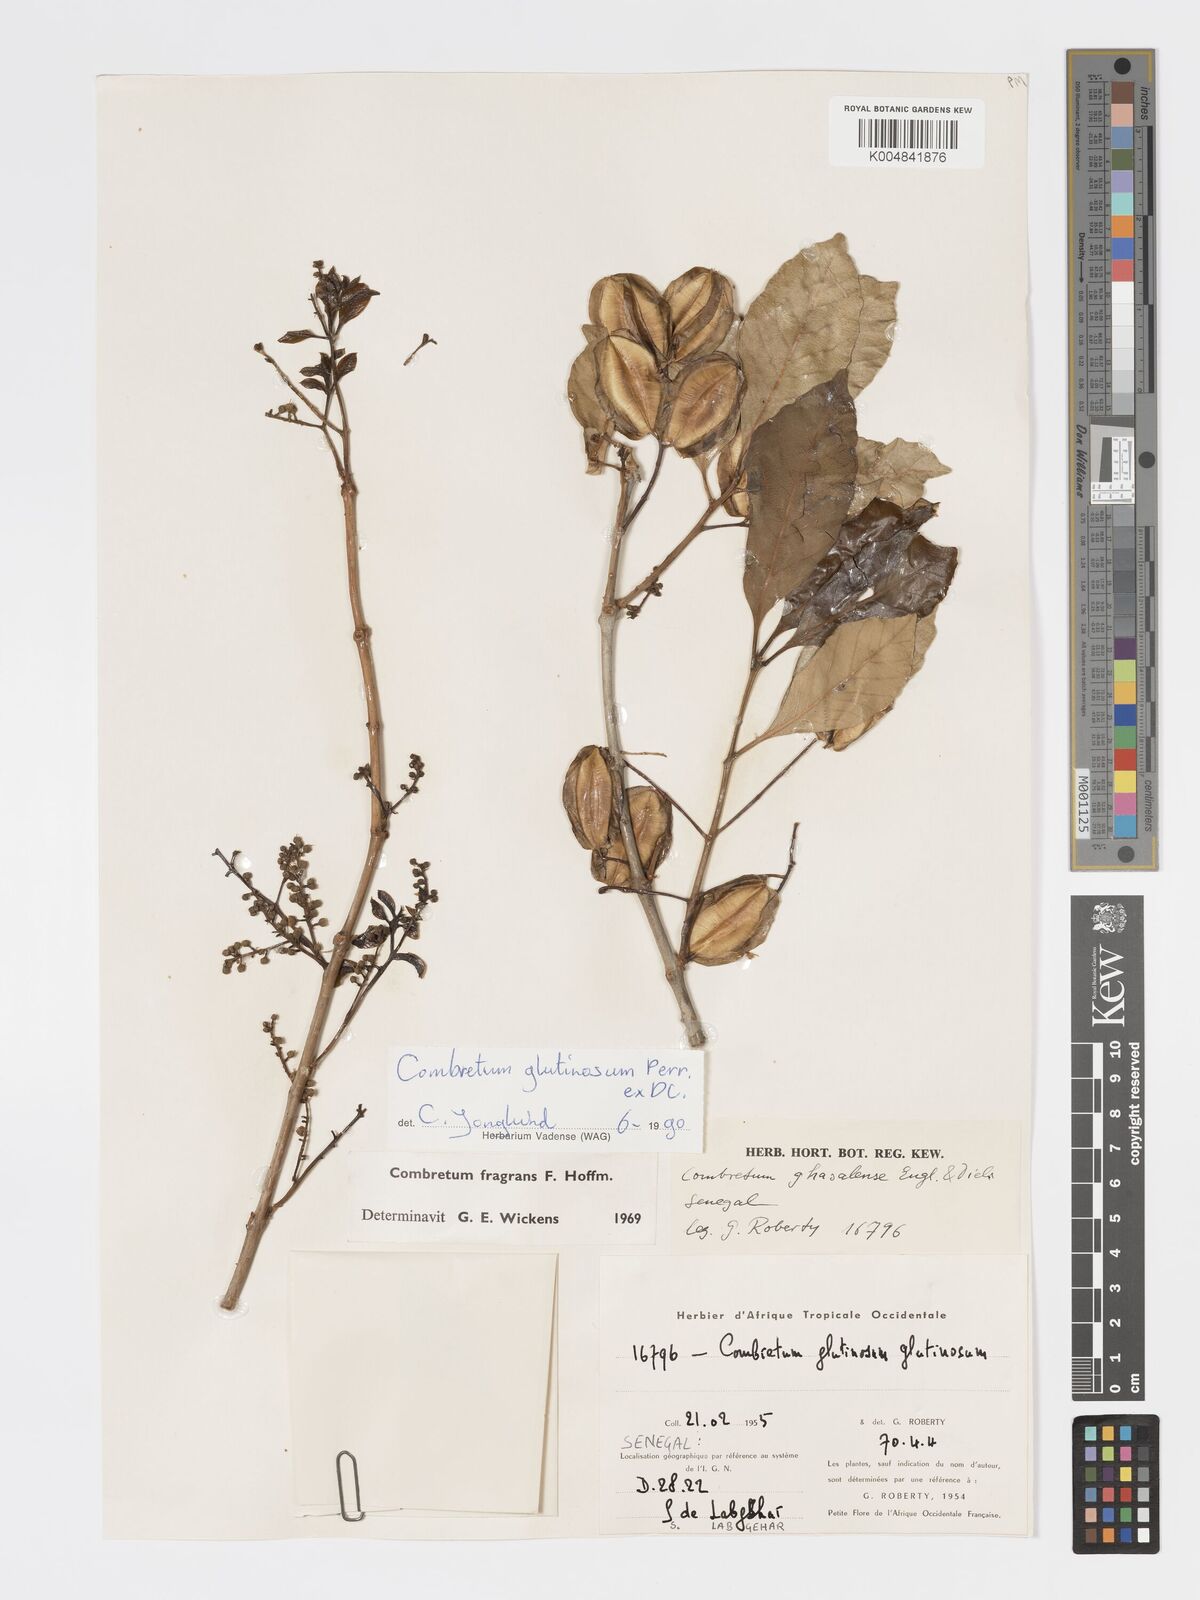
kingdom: Plantae
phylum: Tracheophyta
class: Magnoliopsida
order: Myrtales
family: Combretaceae
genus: Combretum
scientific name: Combretum
